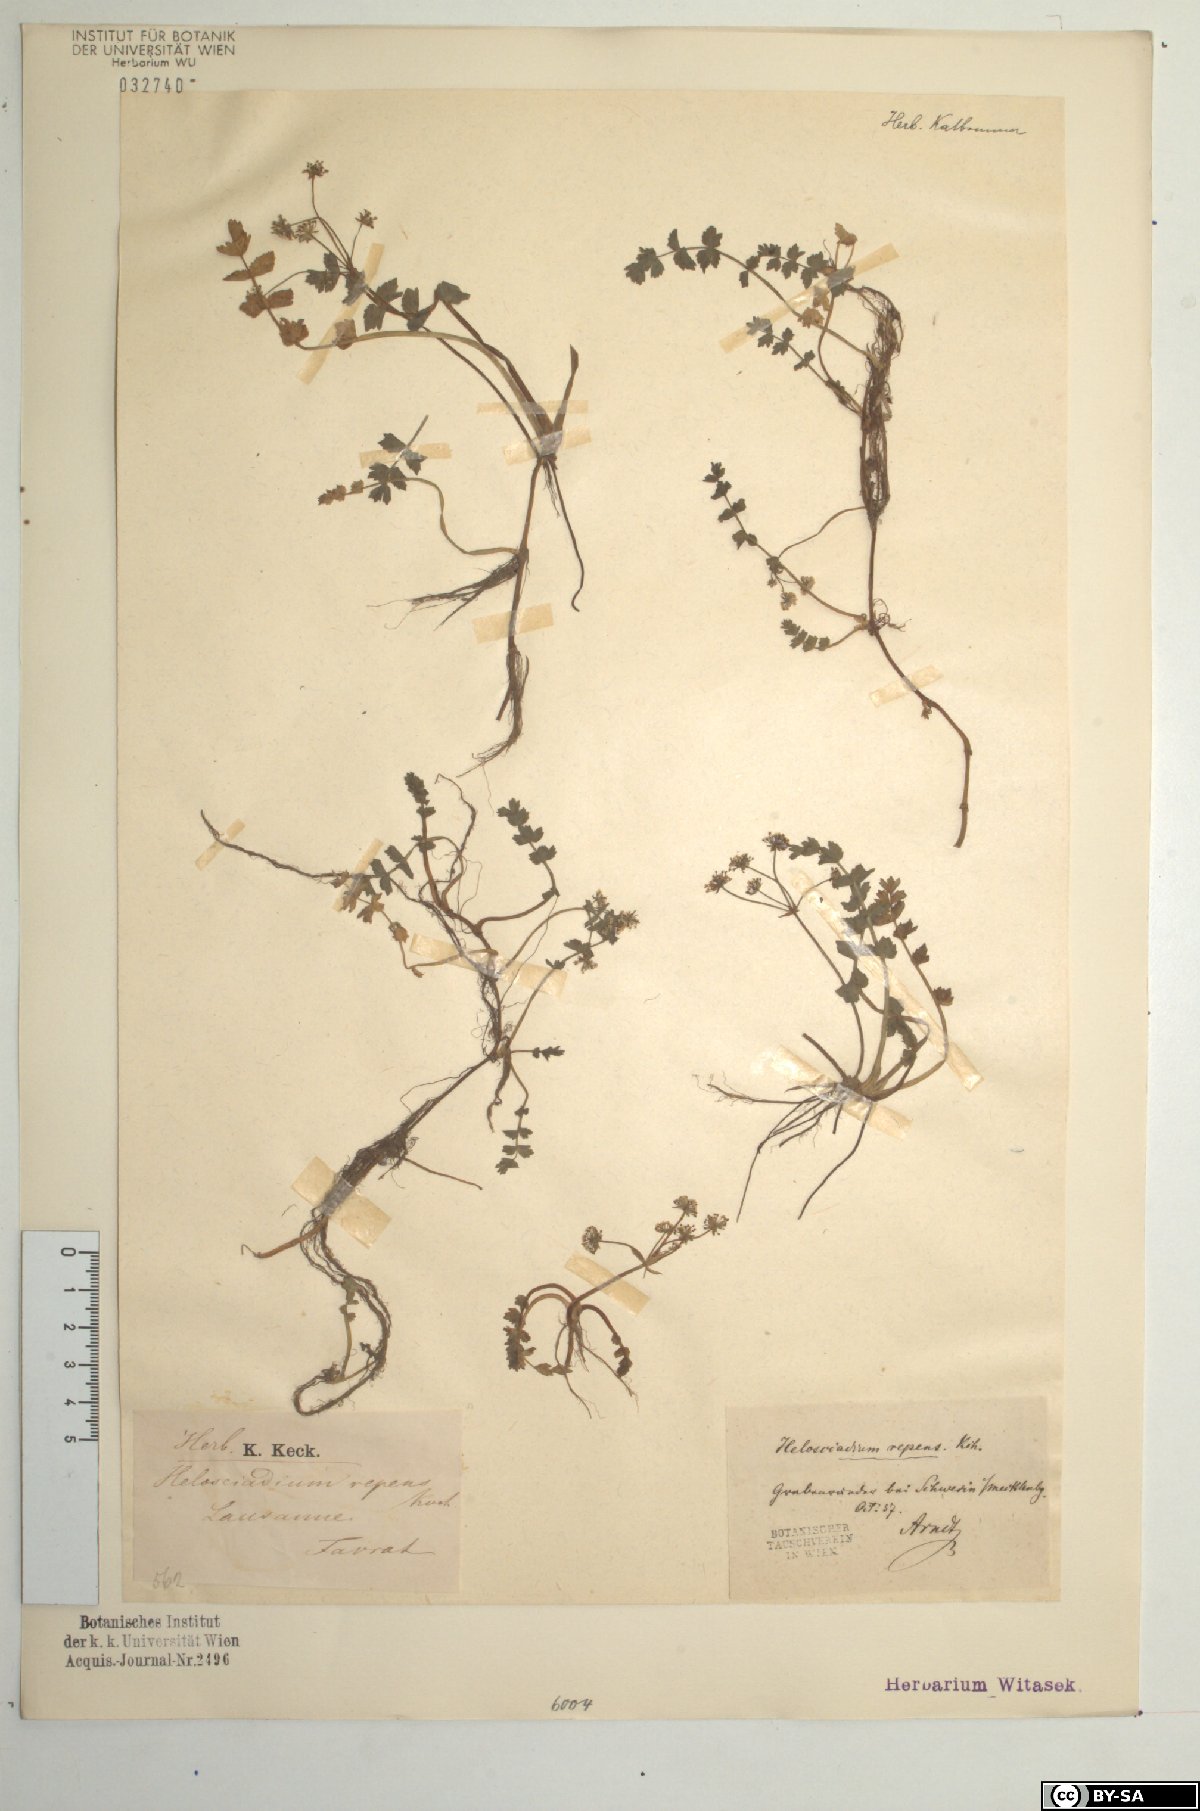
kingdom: Plantae
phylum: Tracheophyta
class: Magnoliopsida
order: Apiales
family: Apiaceae
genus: Helosciadium
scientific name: Helosciadium repens
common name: Creeping marshwort
